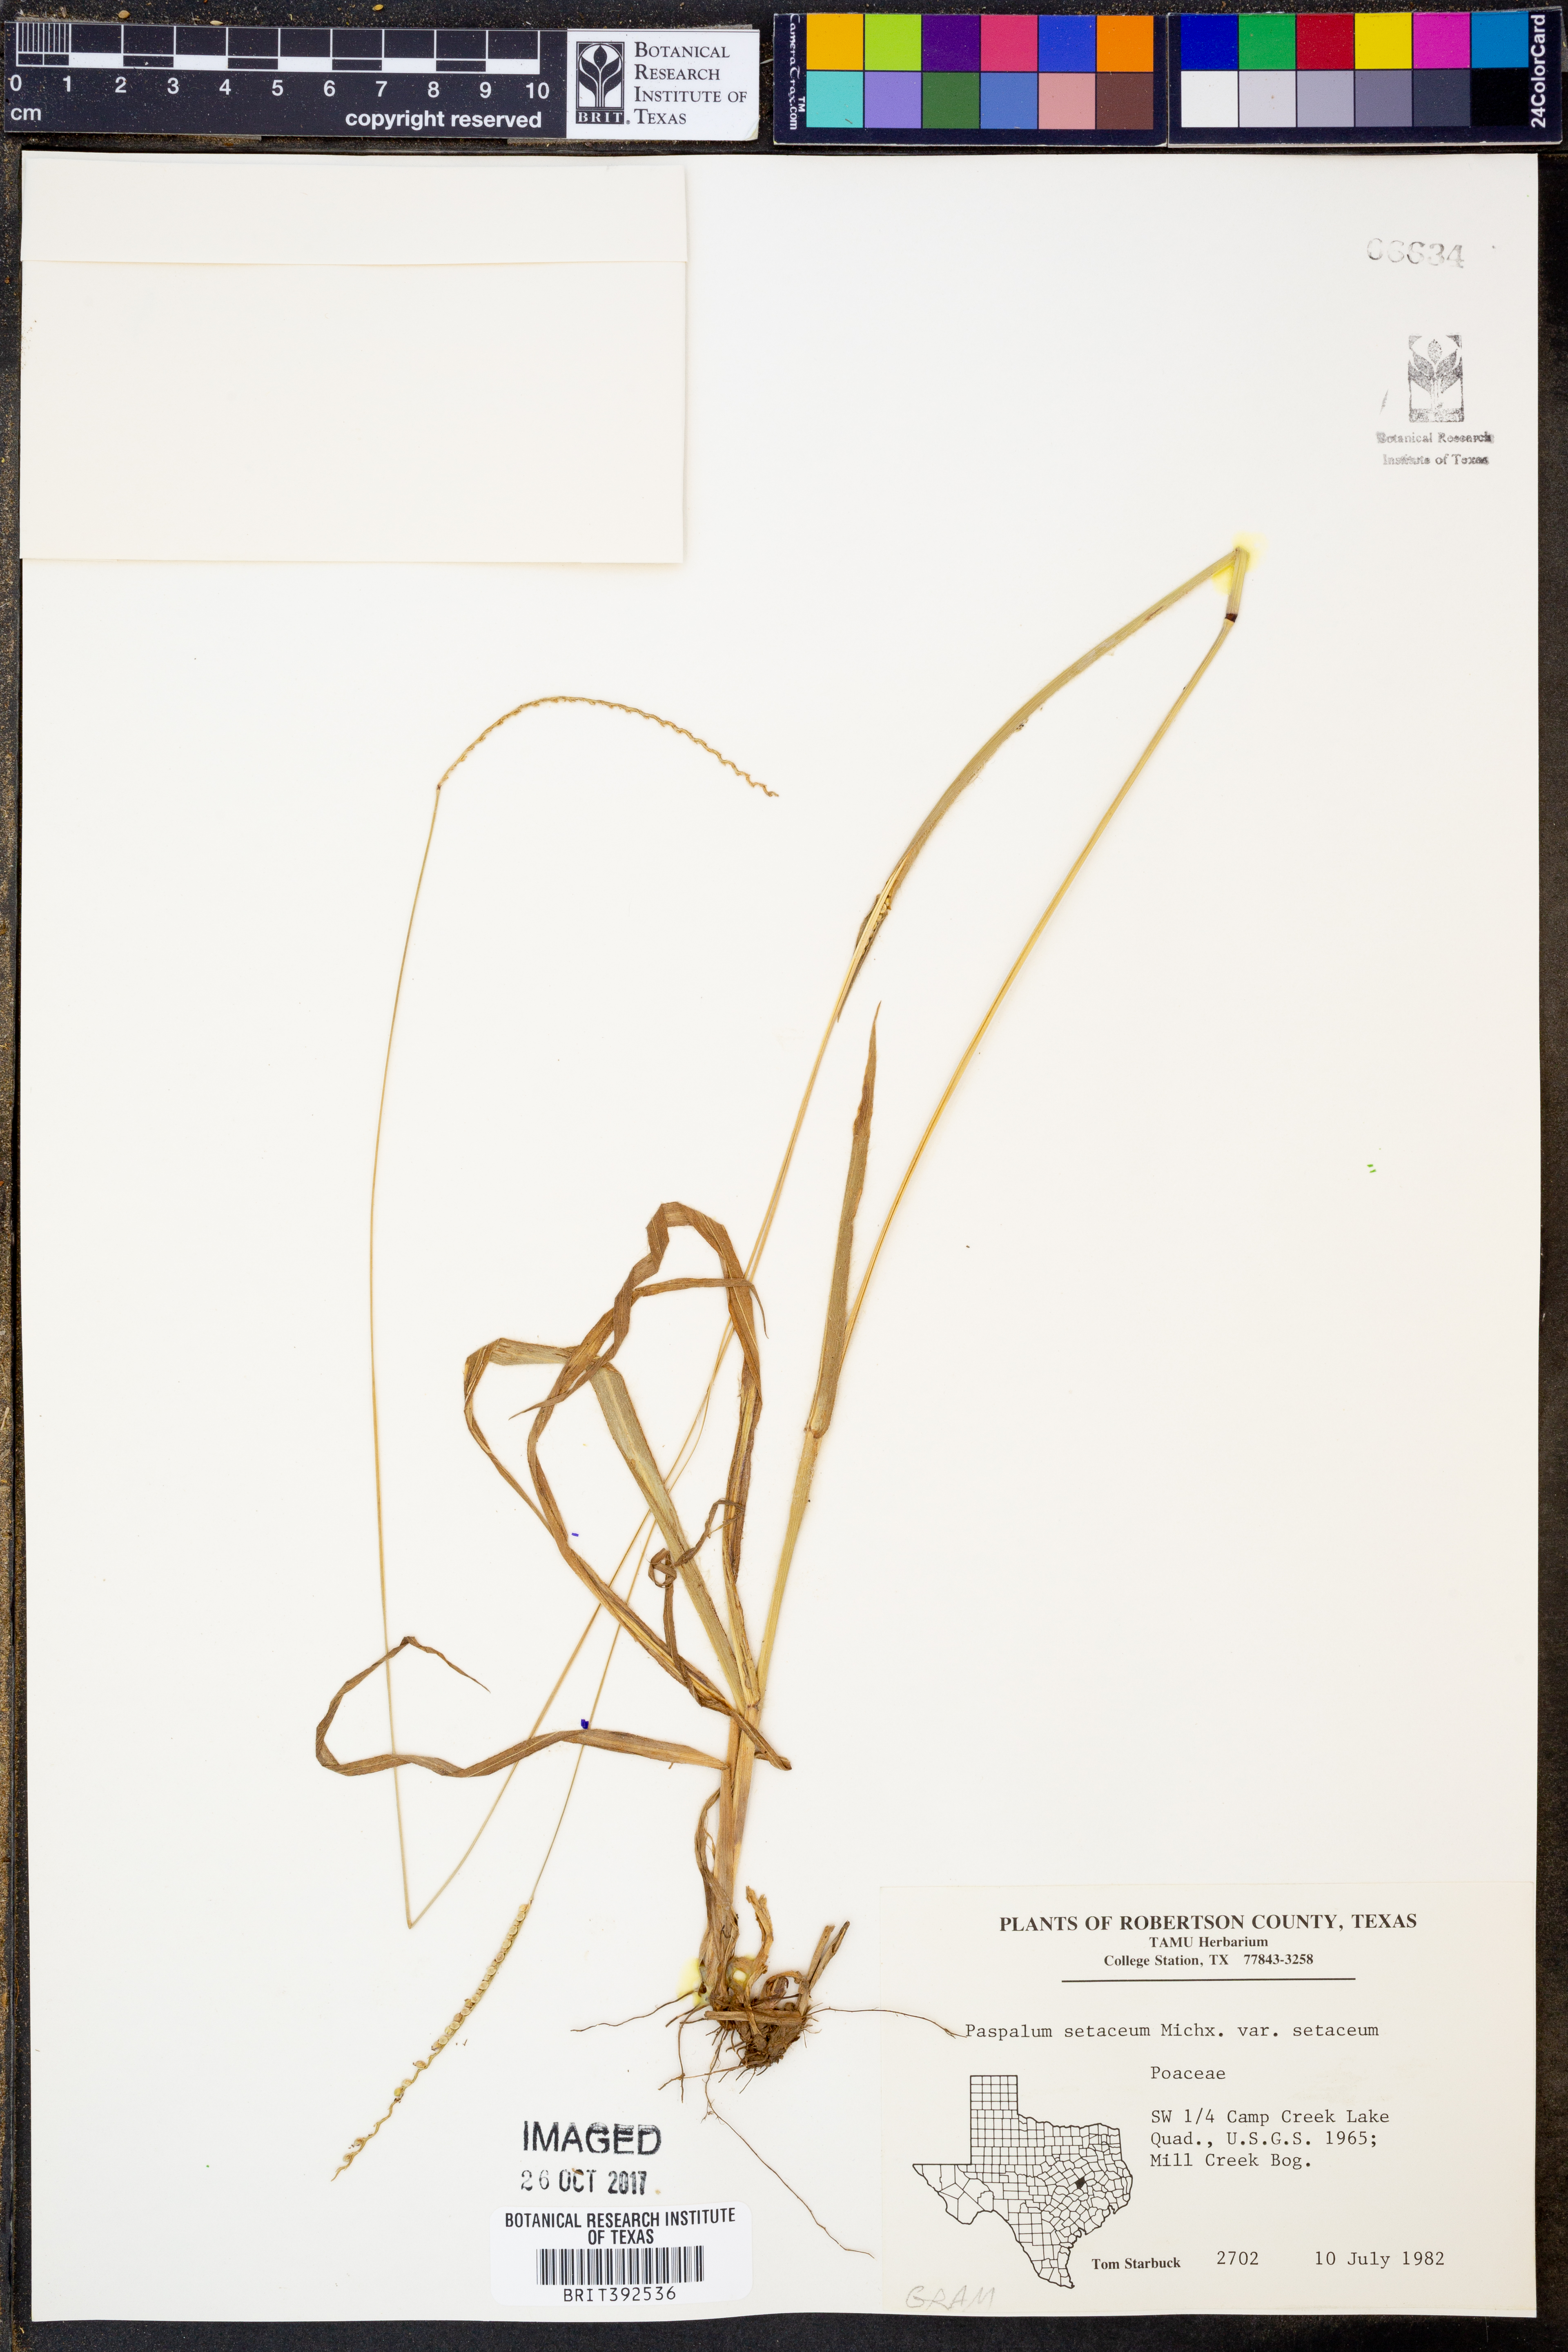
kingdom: Plantae
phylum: Tracheophyta
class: Liliopsida
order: Poales
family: Poaceae
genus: Paspalum
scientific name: Paspalum setaceum
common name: Slender paspalum
